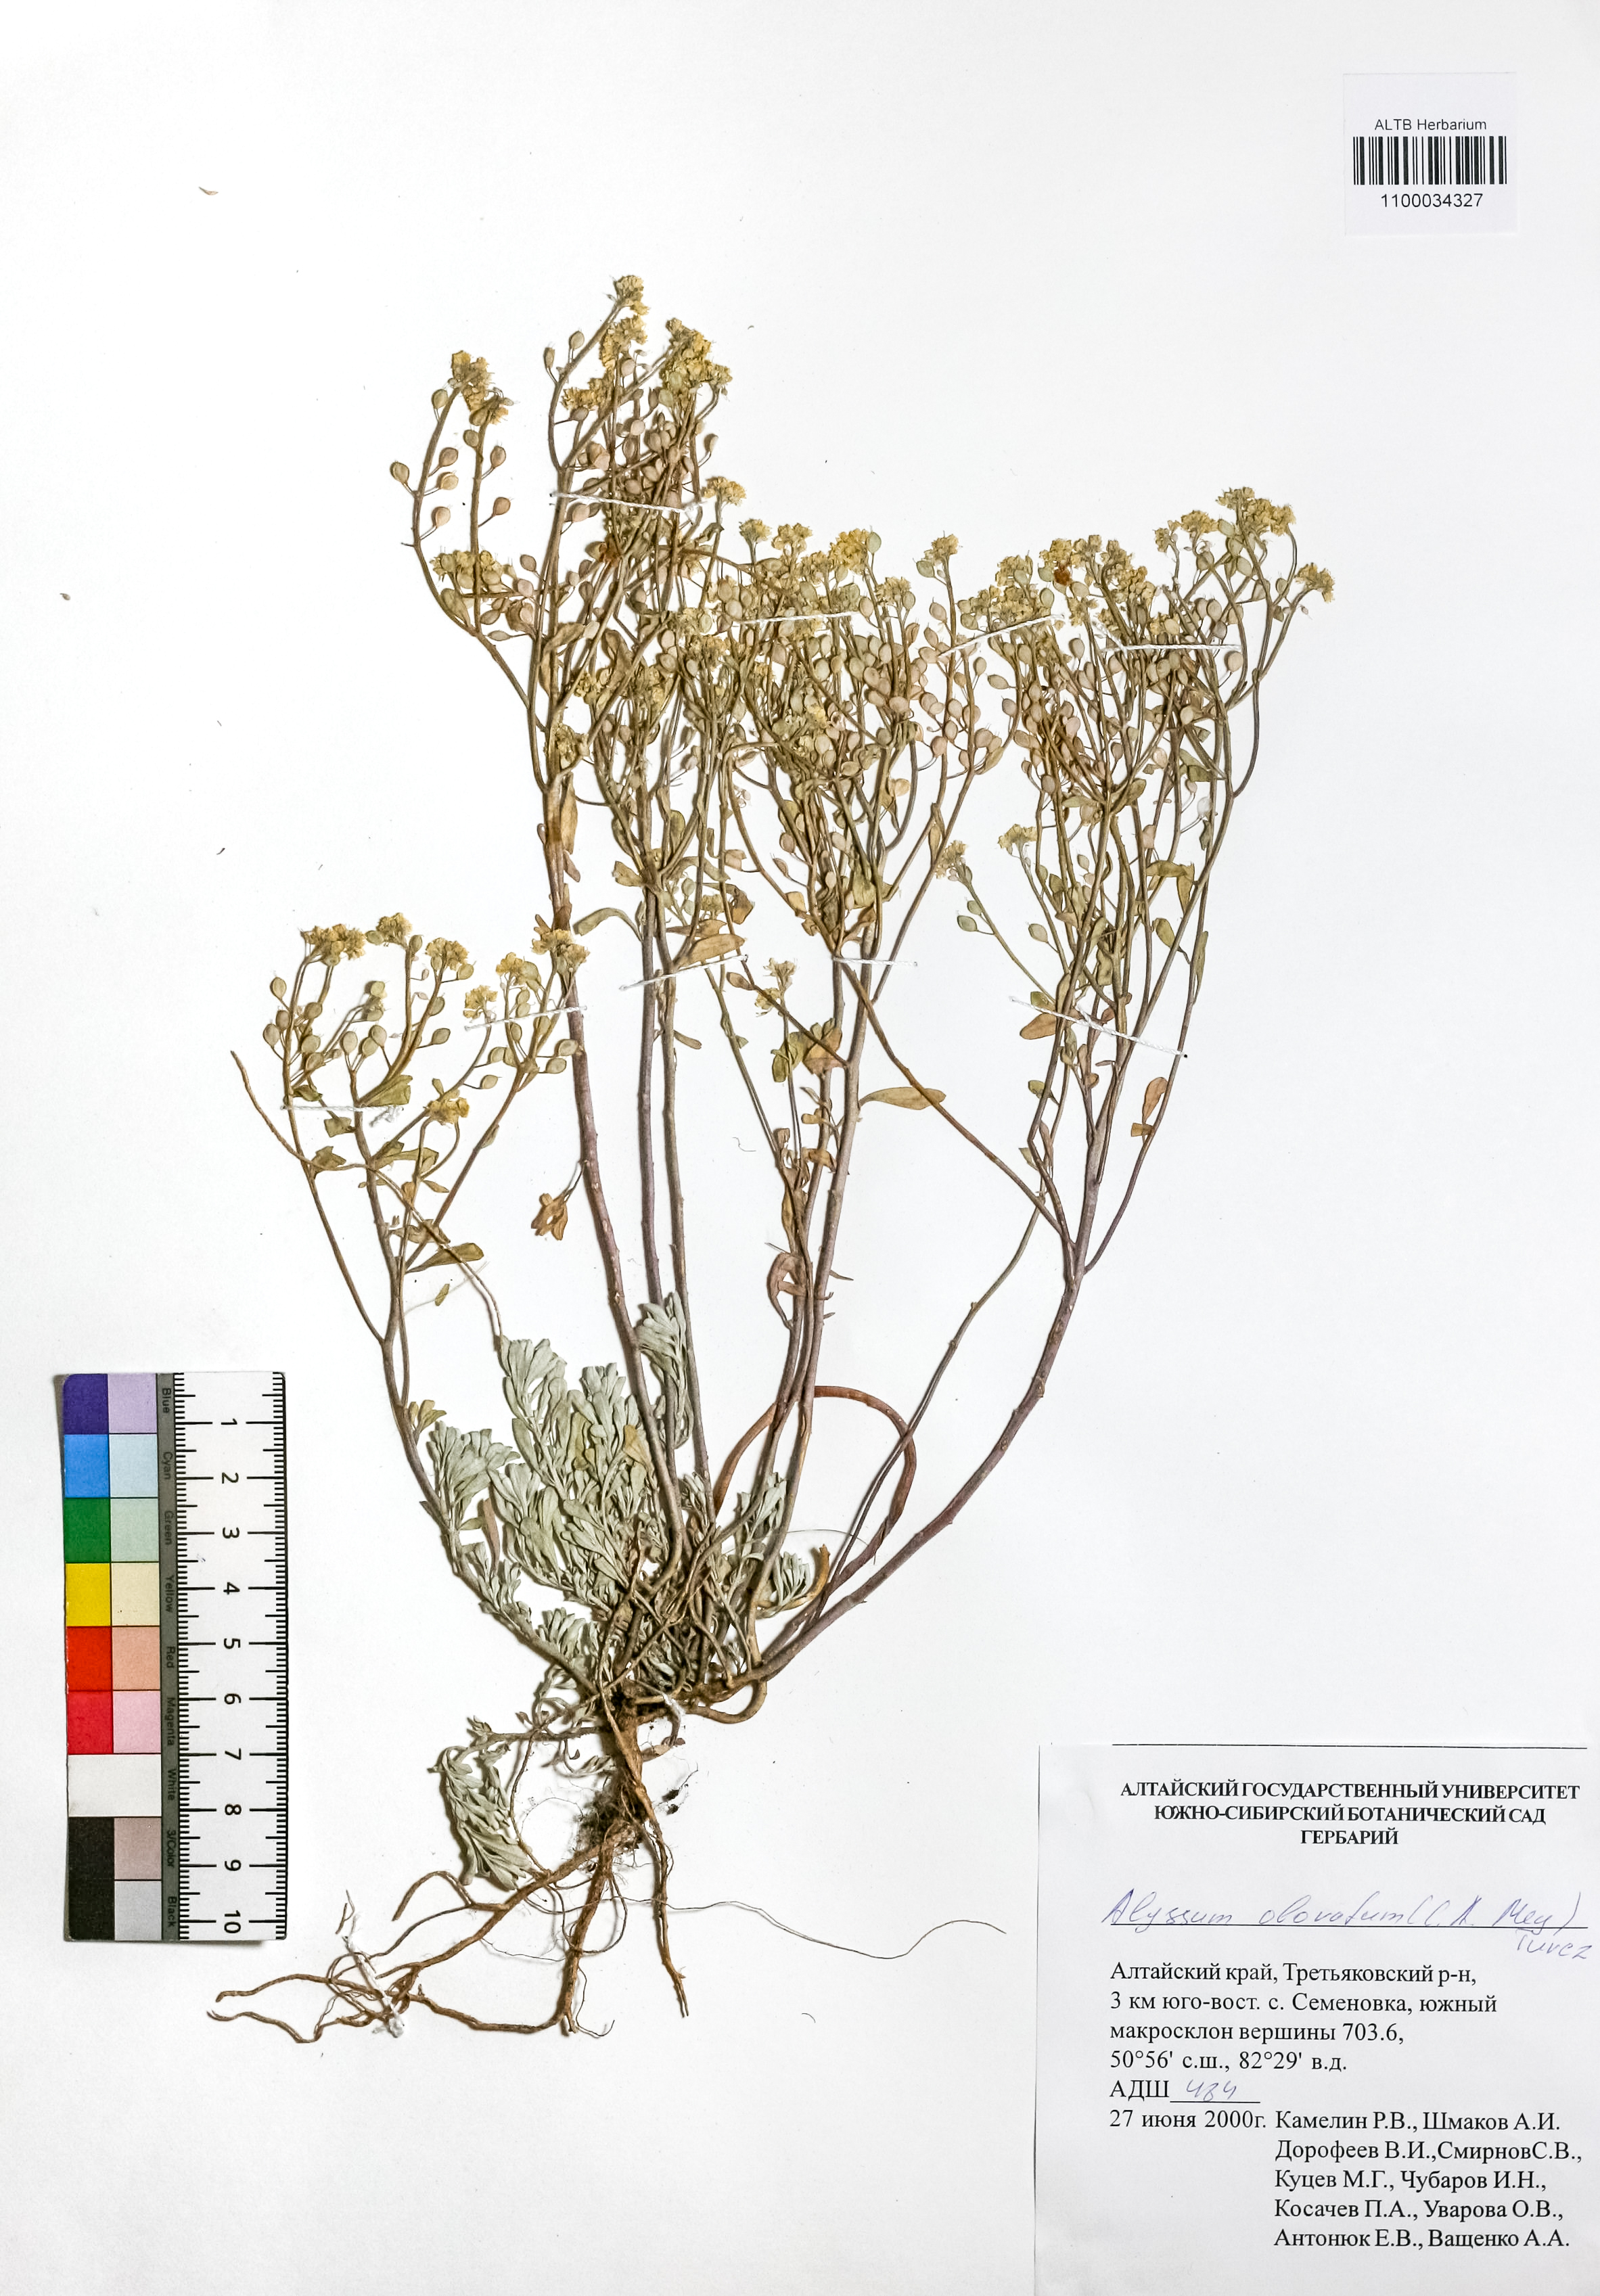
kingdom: Plantae
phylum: Tracheophyta
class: Magnoliopsida
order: Brassicales
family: Brassicaceae
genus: Odontarrhena
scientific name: Odontarrhena obovata
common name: American alyssum
